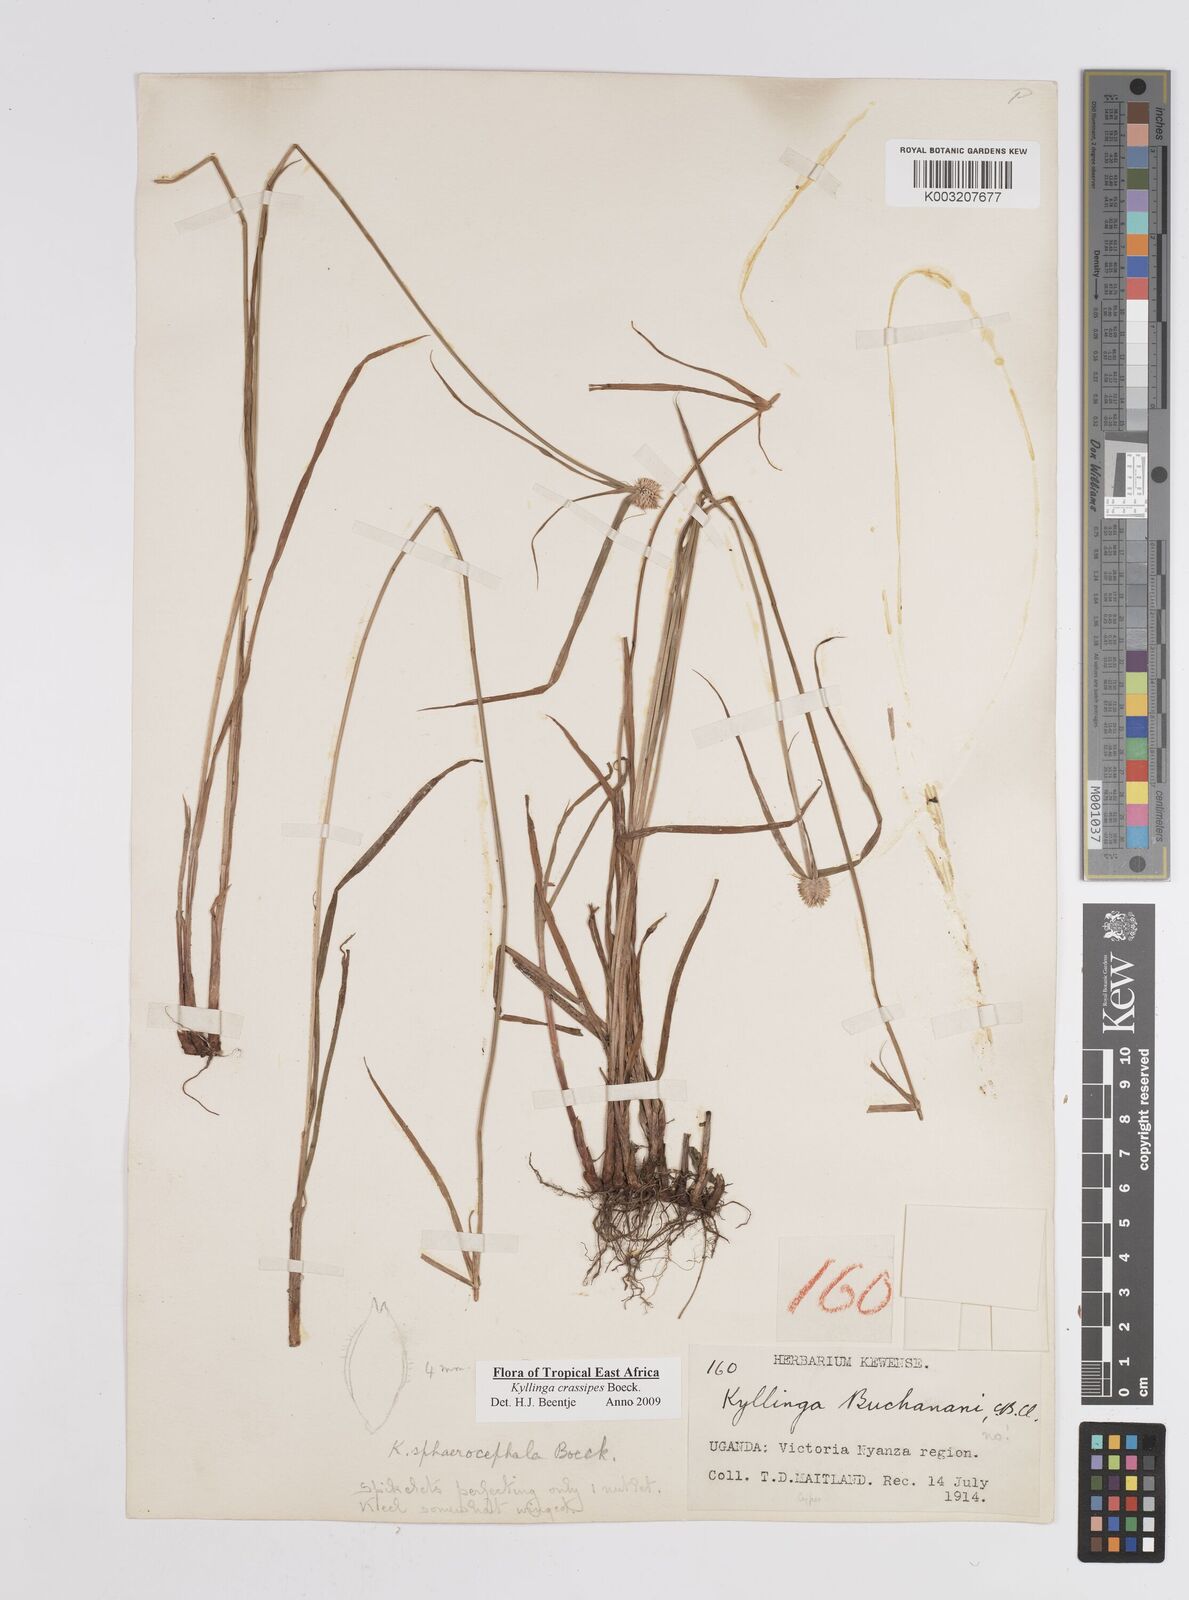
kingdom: Plantae
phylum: Tracheophyta
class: Liliopsida
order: Poales
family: Cyperaceae
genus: Cyperus
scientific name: Cyperus crassipes
